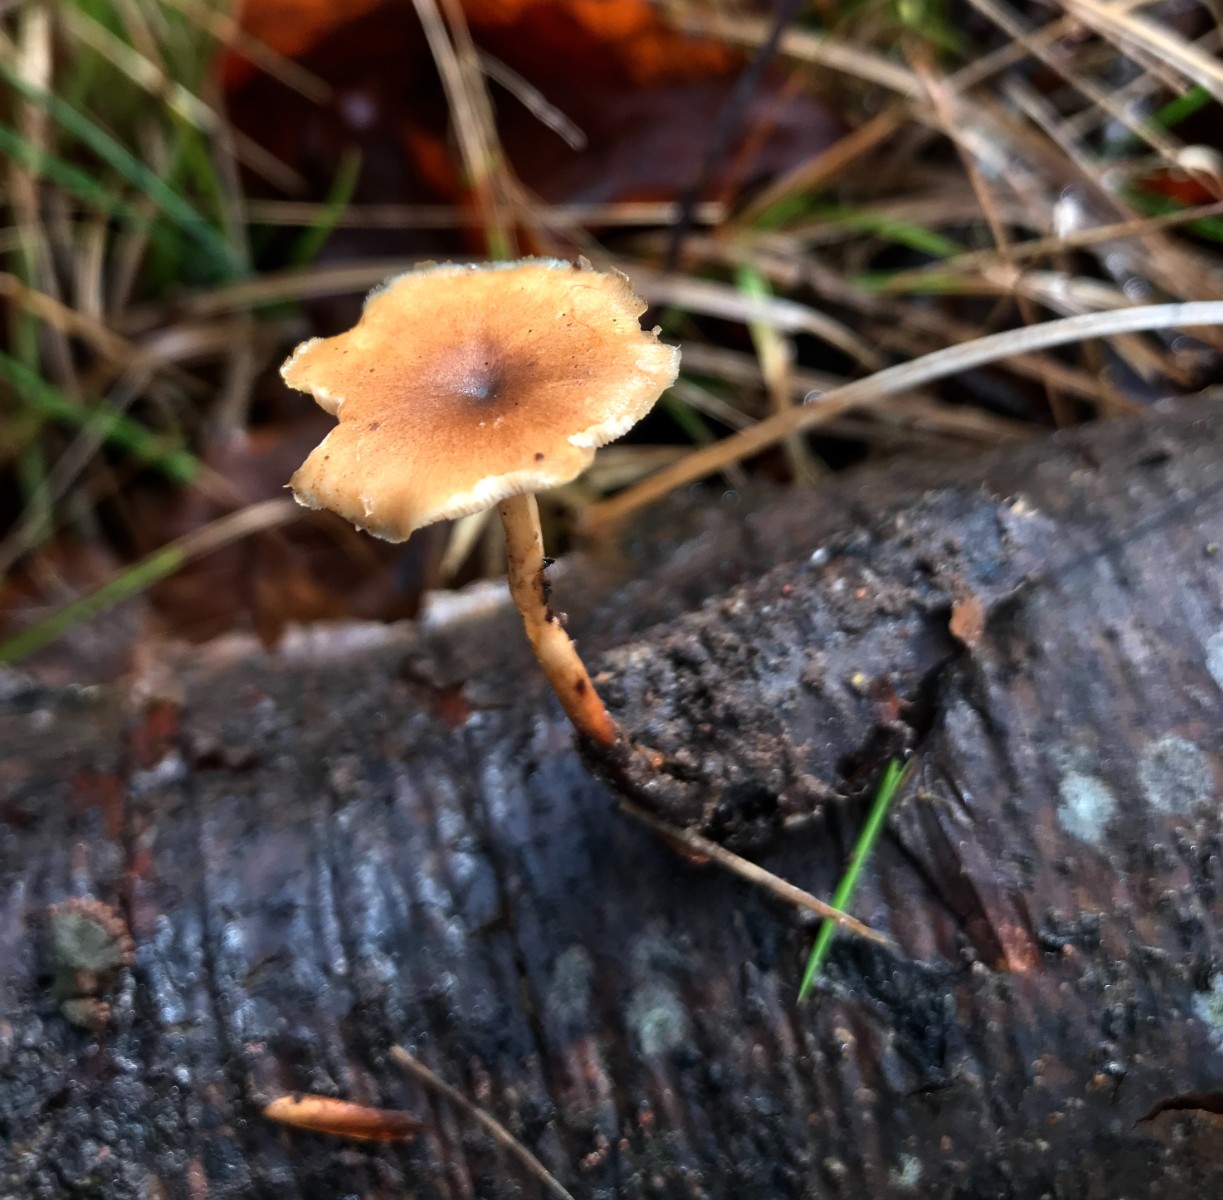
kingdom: Fungi
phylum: Basidiomycota
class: Agaricomycetes
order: Polyporales
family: Polyporaceae
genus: Cerioporus
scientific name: Cerioporus varius
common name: foranderlig stilkporesvamp
